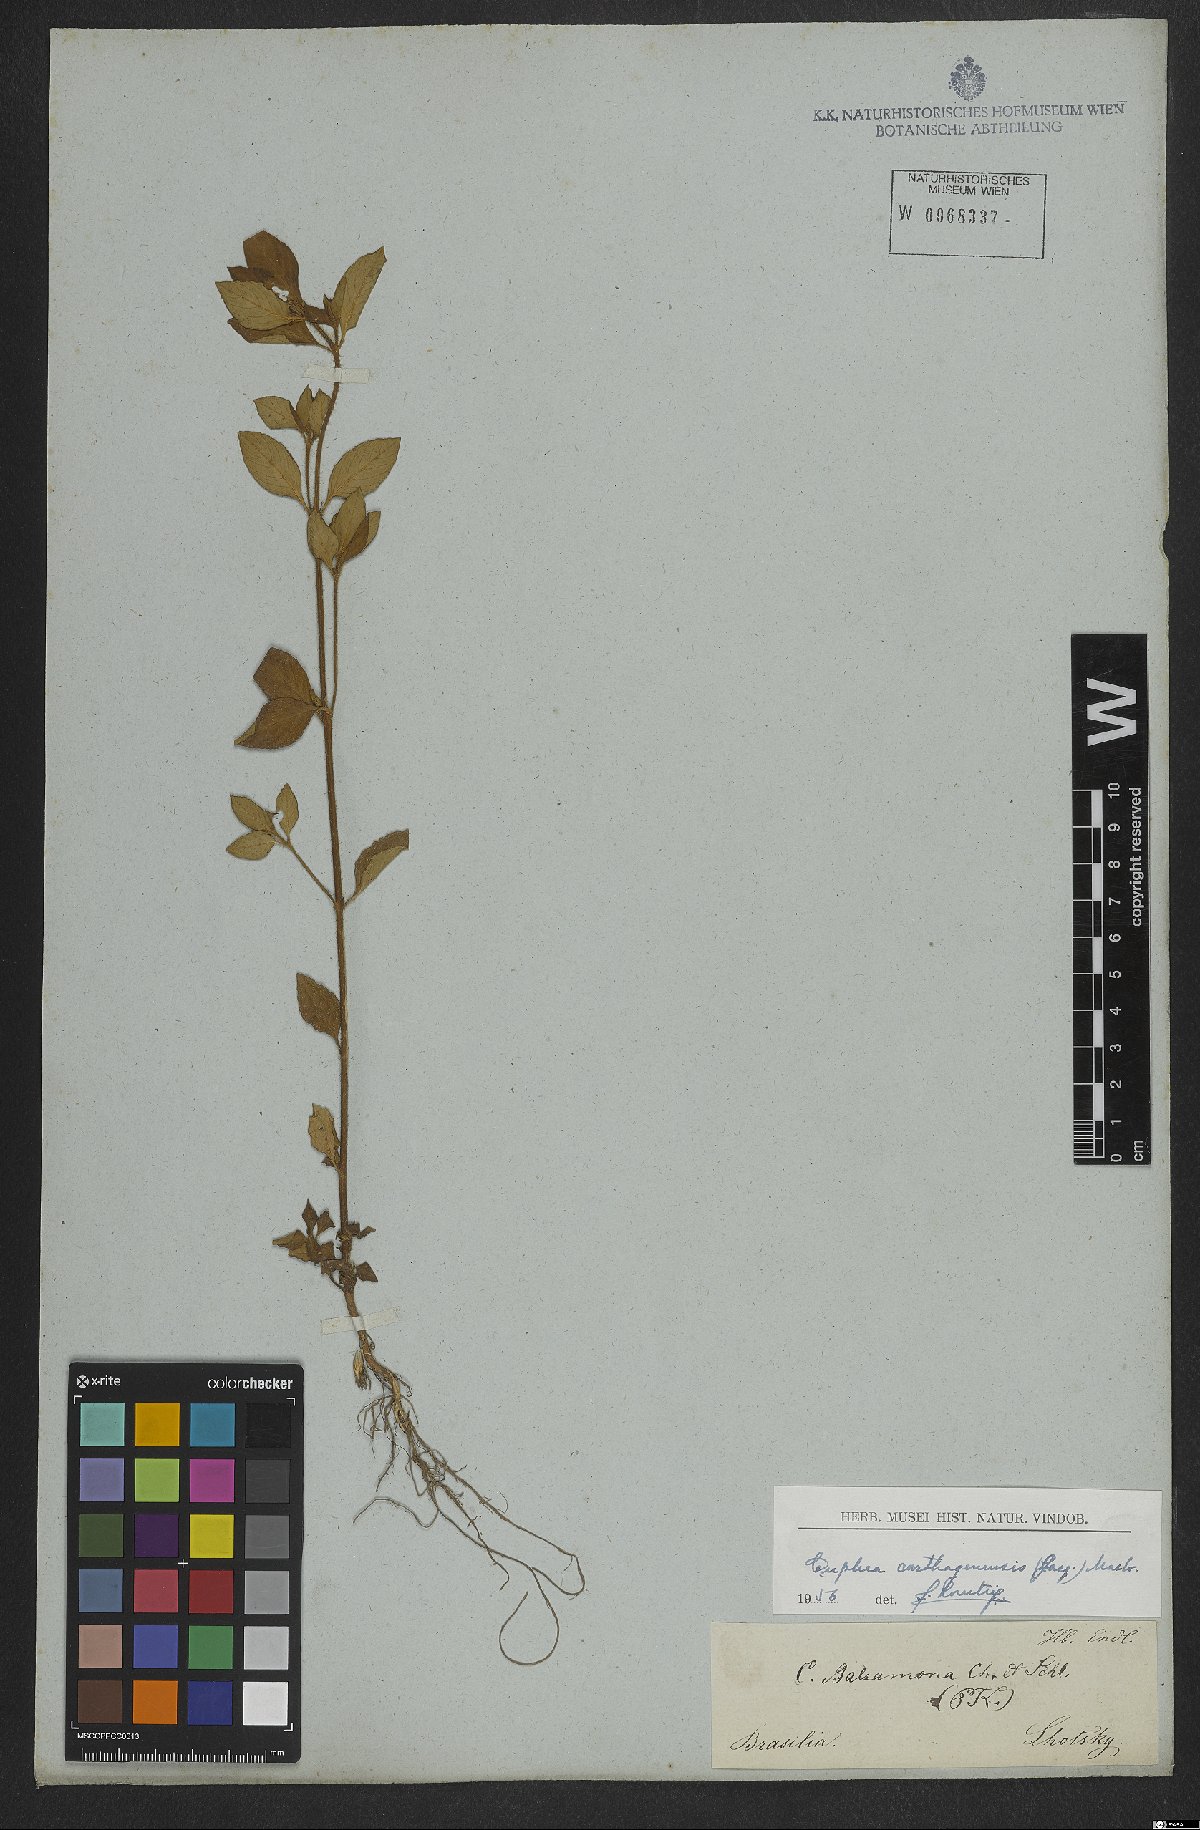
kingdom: Plantae
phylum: Tracheophyta
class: Magnoliopsida
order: Myrtales
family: Lythraceae
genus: Cuphea
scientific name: Cuphea carthagenensis
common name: Colombian waxweed
